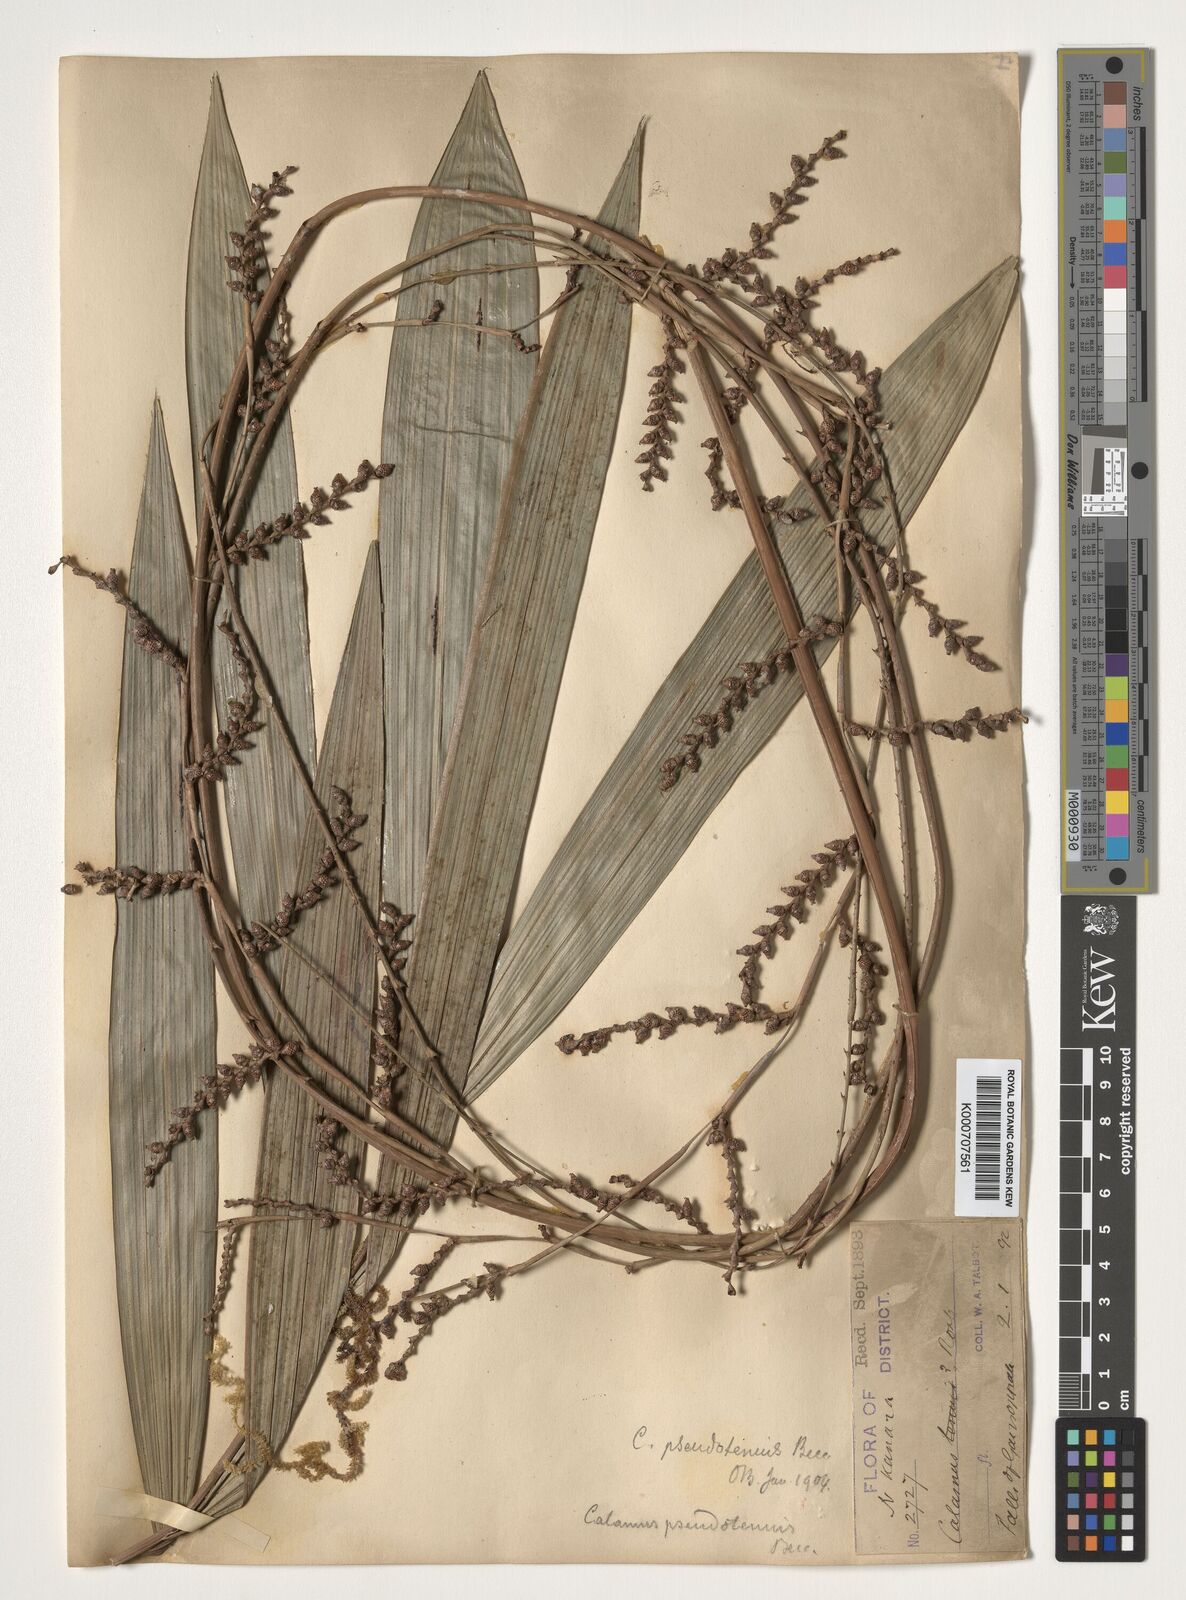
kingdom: Plantae
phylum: Tracheophyta
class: Liliopsida
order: Arecales
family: Arecaceae
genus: Calamus
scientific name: Calamus pseudotenuis
